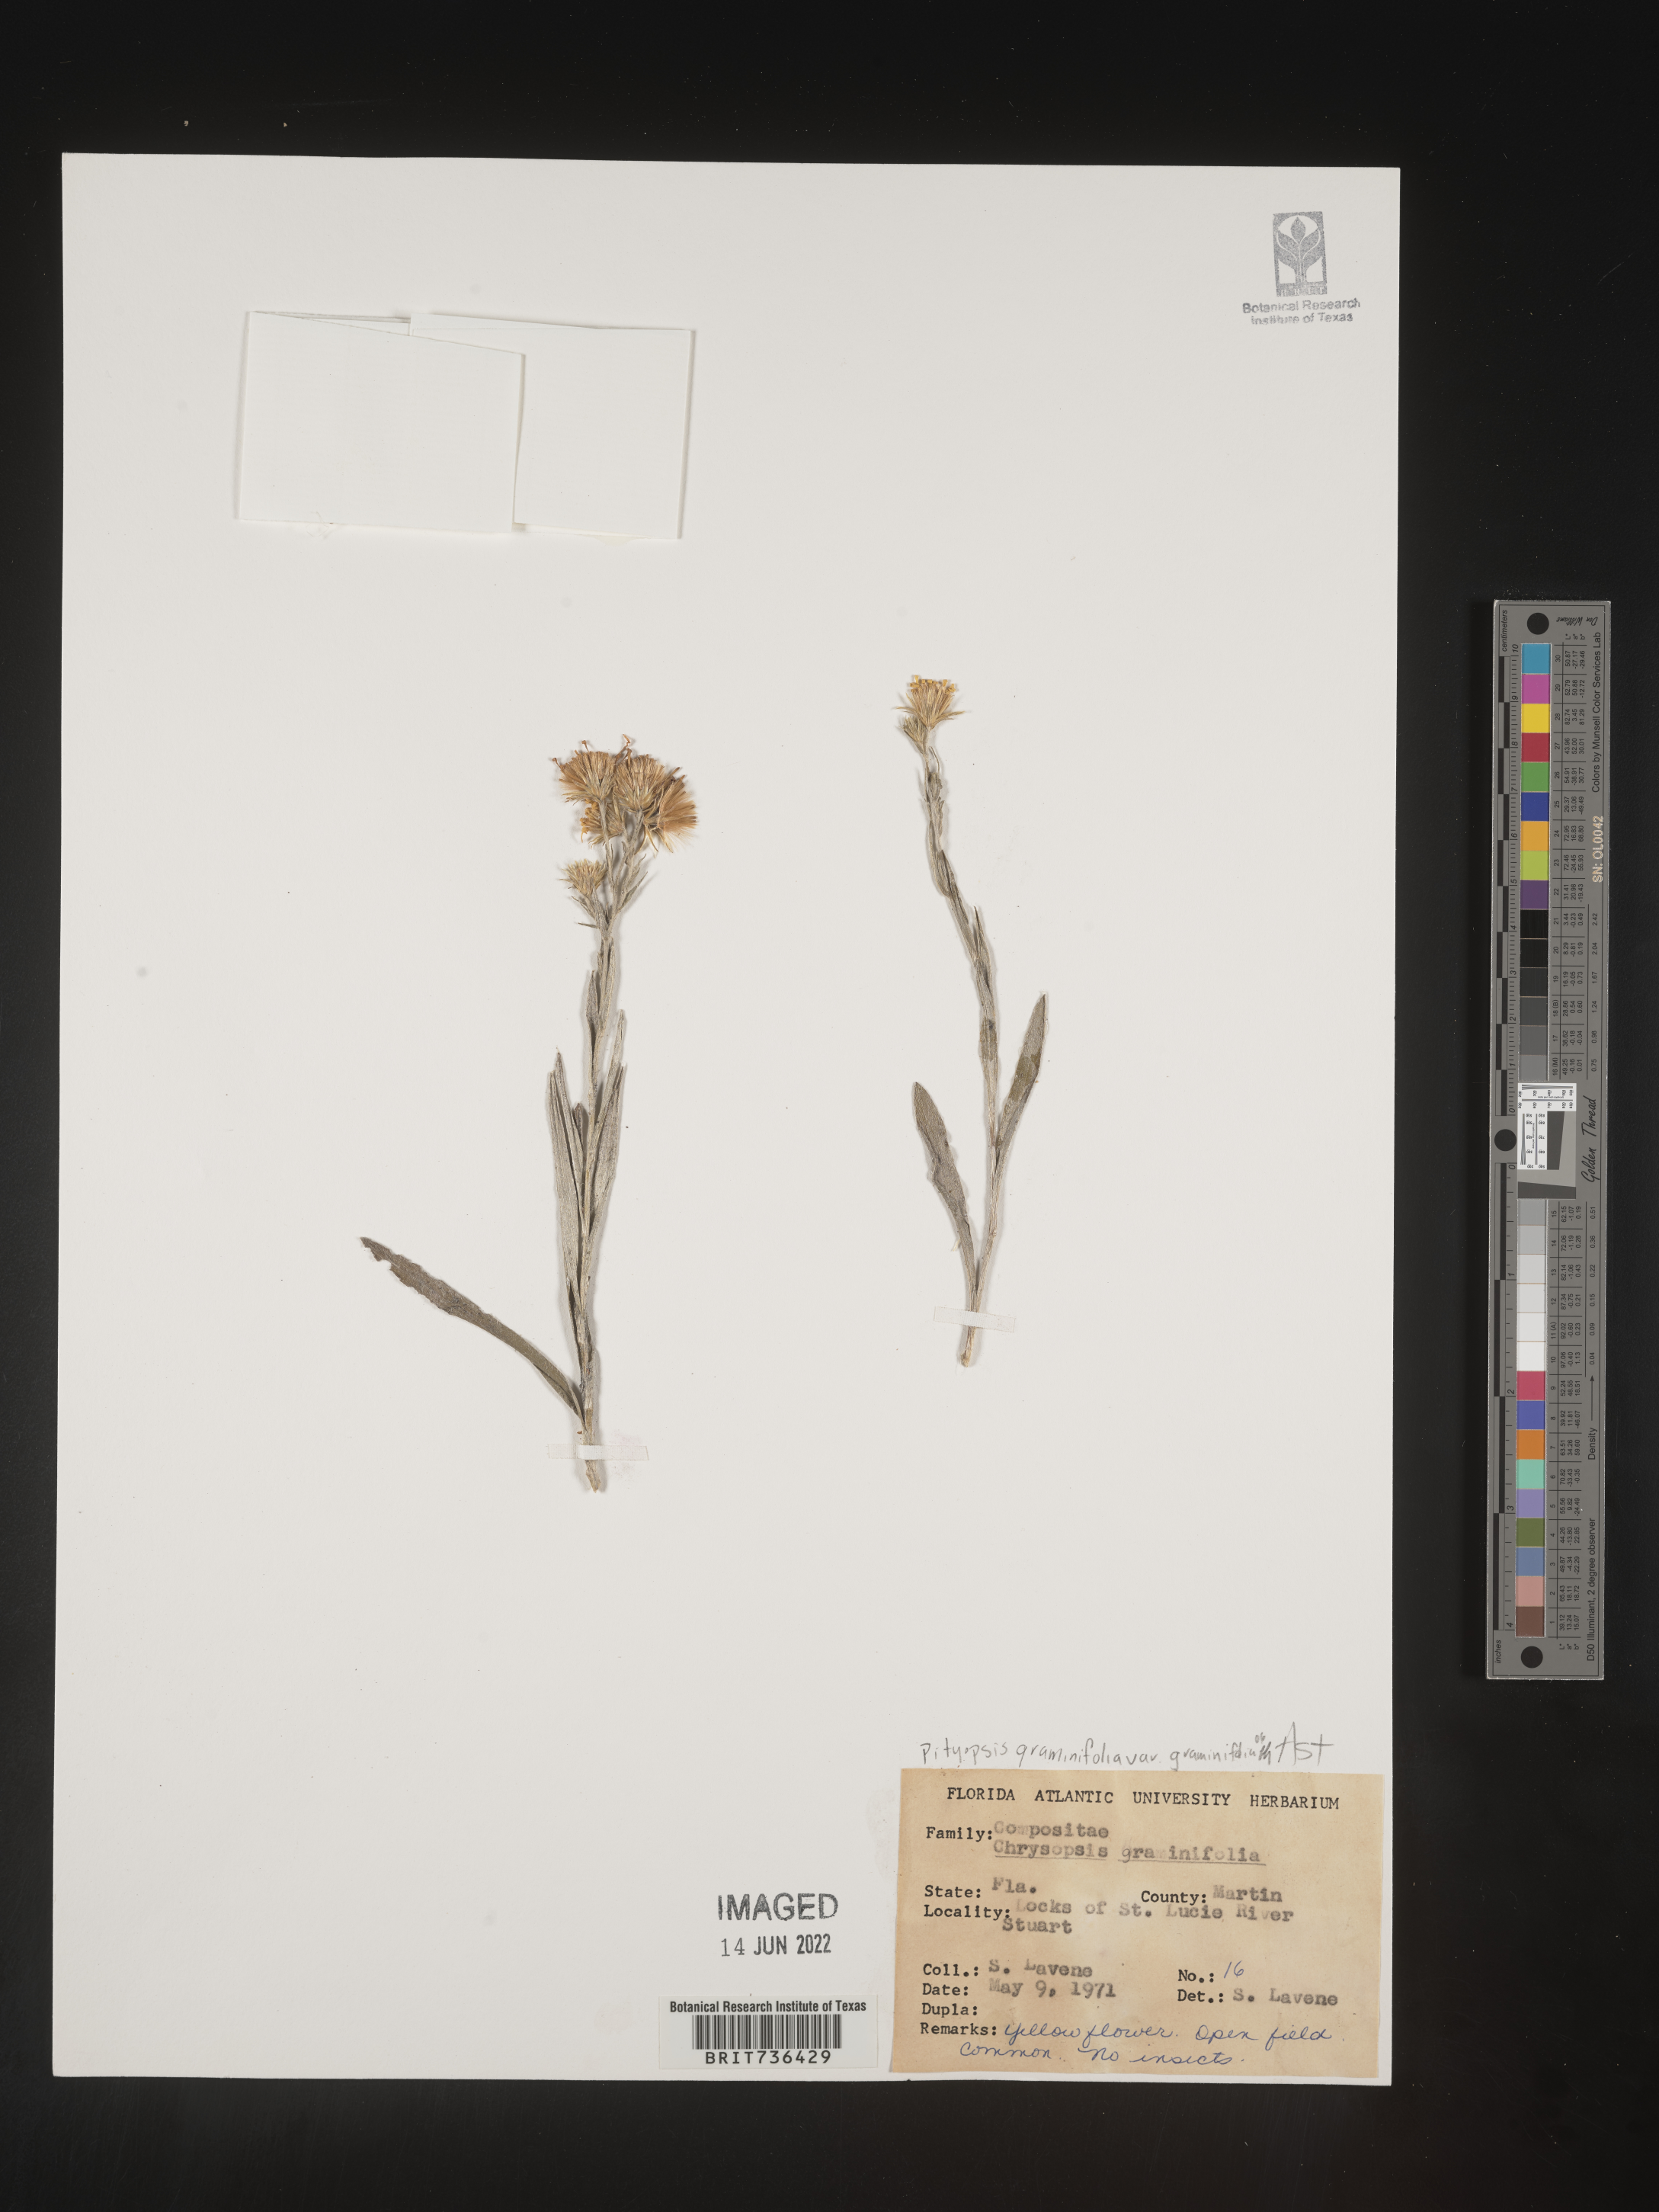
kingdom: Plantae
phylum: Tracheophyta
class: Magnoliopsida
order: Asterales
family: Asteraceae
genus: Pityopsis
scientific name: Pityopsis tracyi
